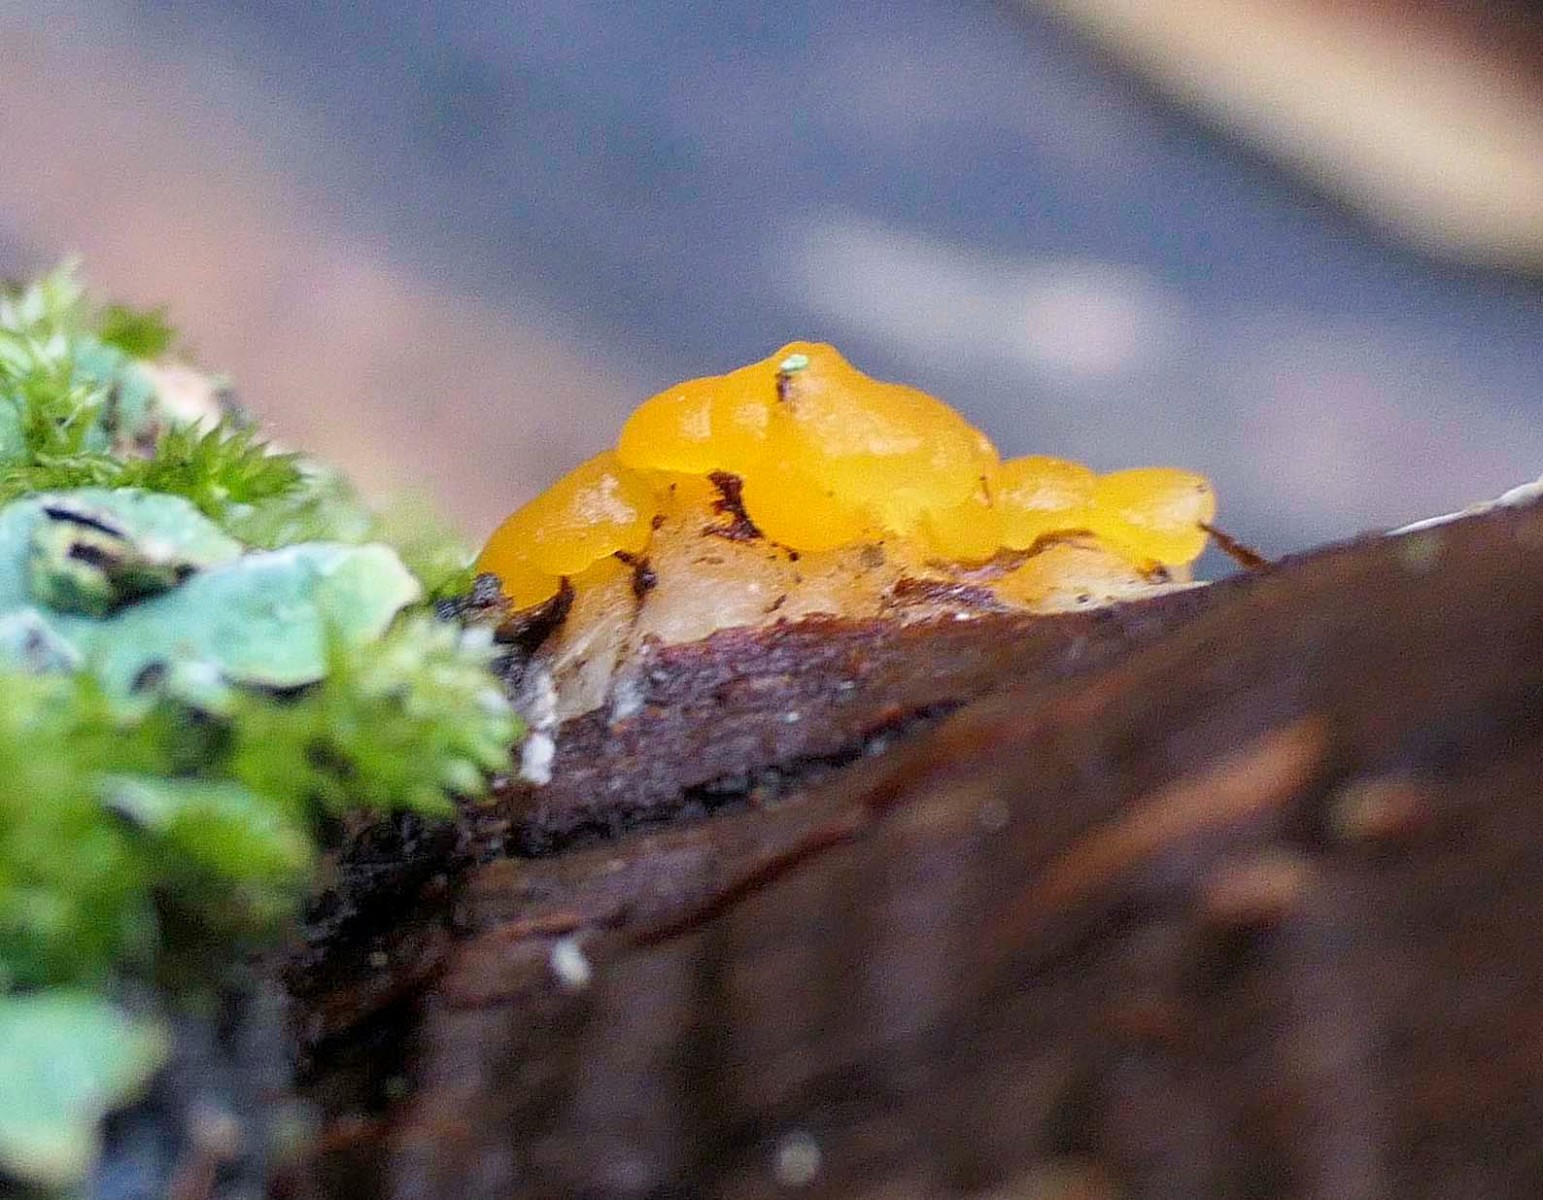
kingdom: Fungi
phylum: Basidiomycota
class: Dacrymycetes
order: Dacrymycetales
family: Dacrymycetaceae
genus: Dacrymyces
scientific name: Dacrymyces capitatus
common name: stilket tåresvamp
